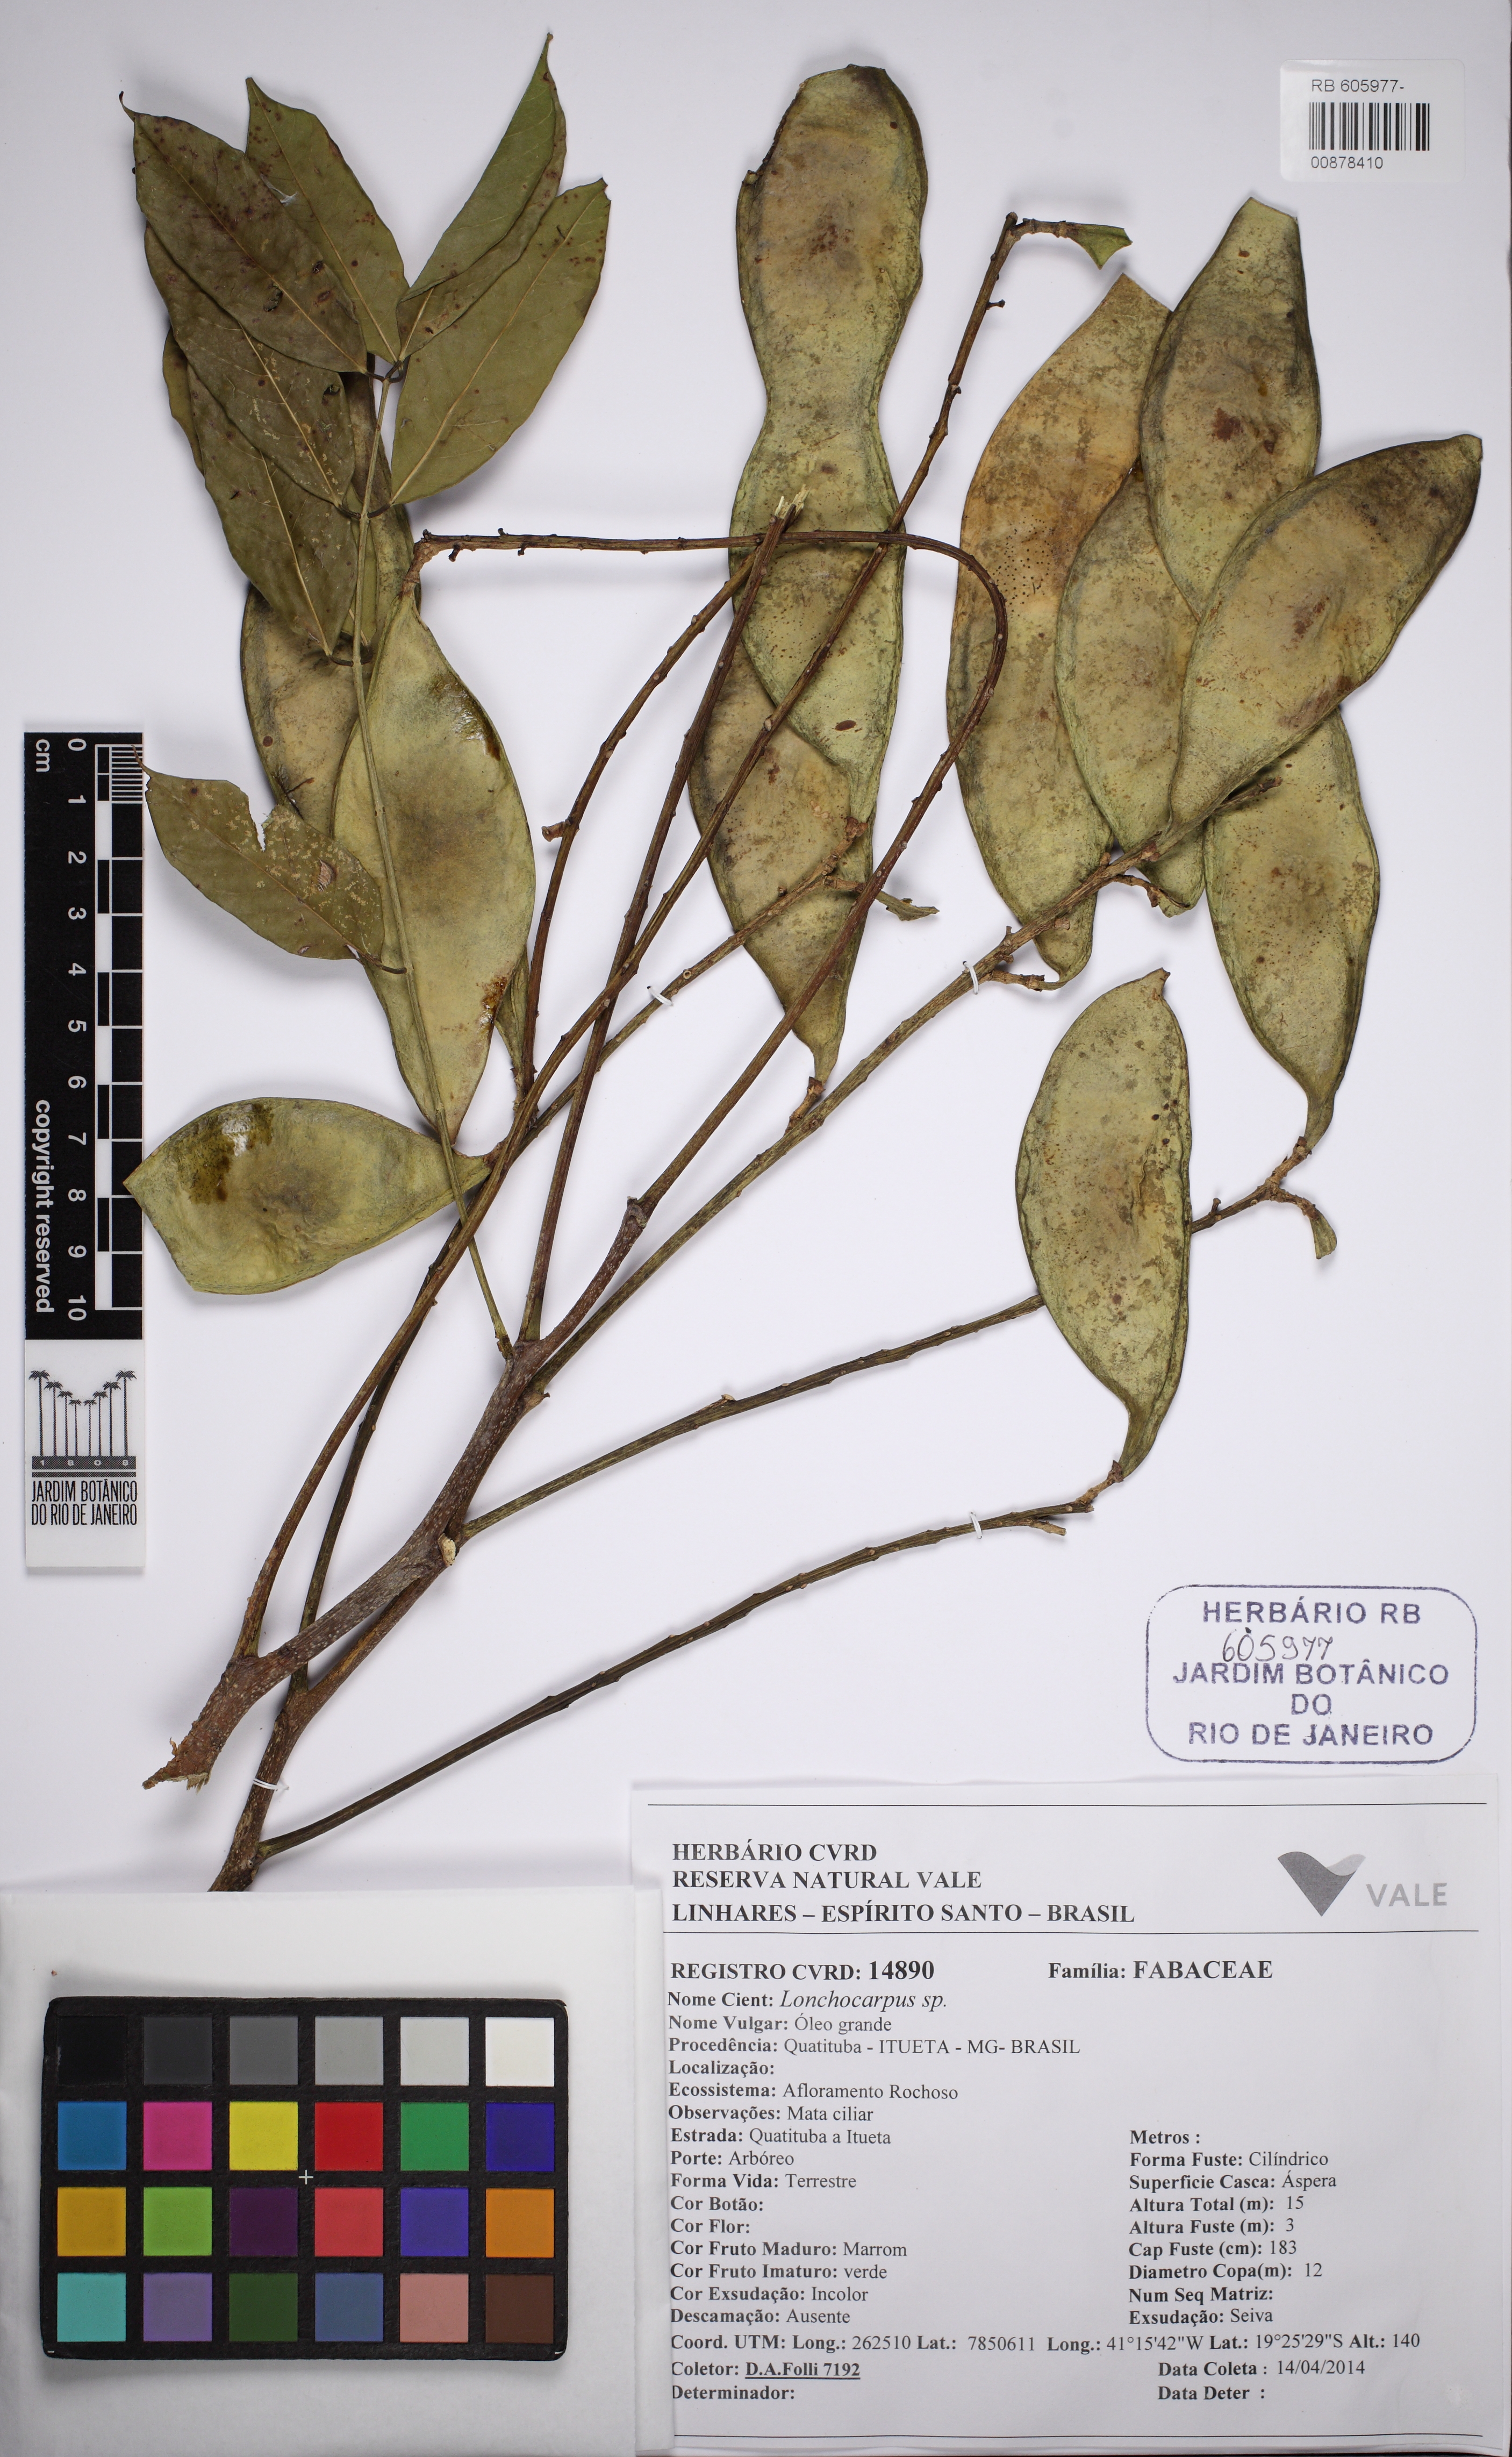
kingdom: Plantae
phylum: Tracheophyta
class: Magnoliopsida
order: Fabales
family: Fabaceae
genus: Lonchocarpus
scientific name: Lonchocarpus violaceus
